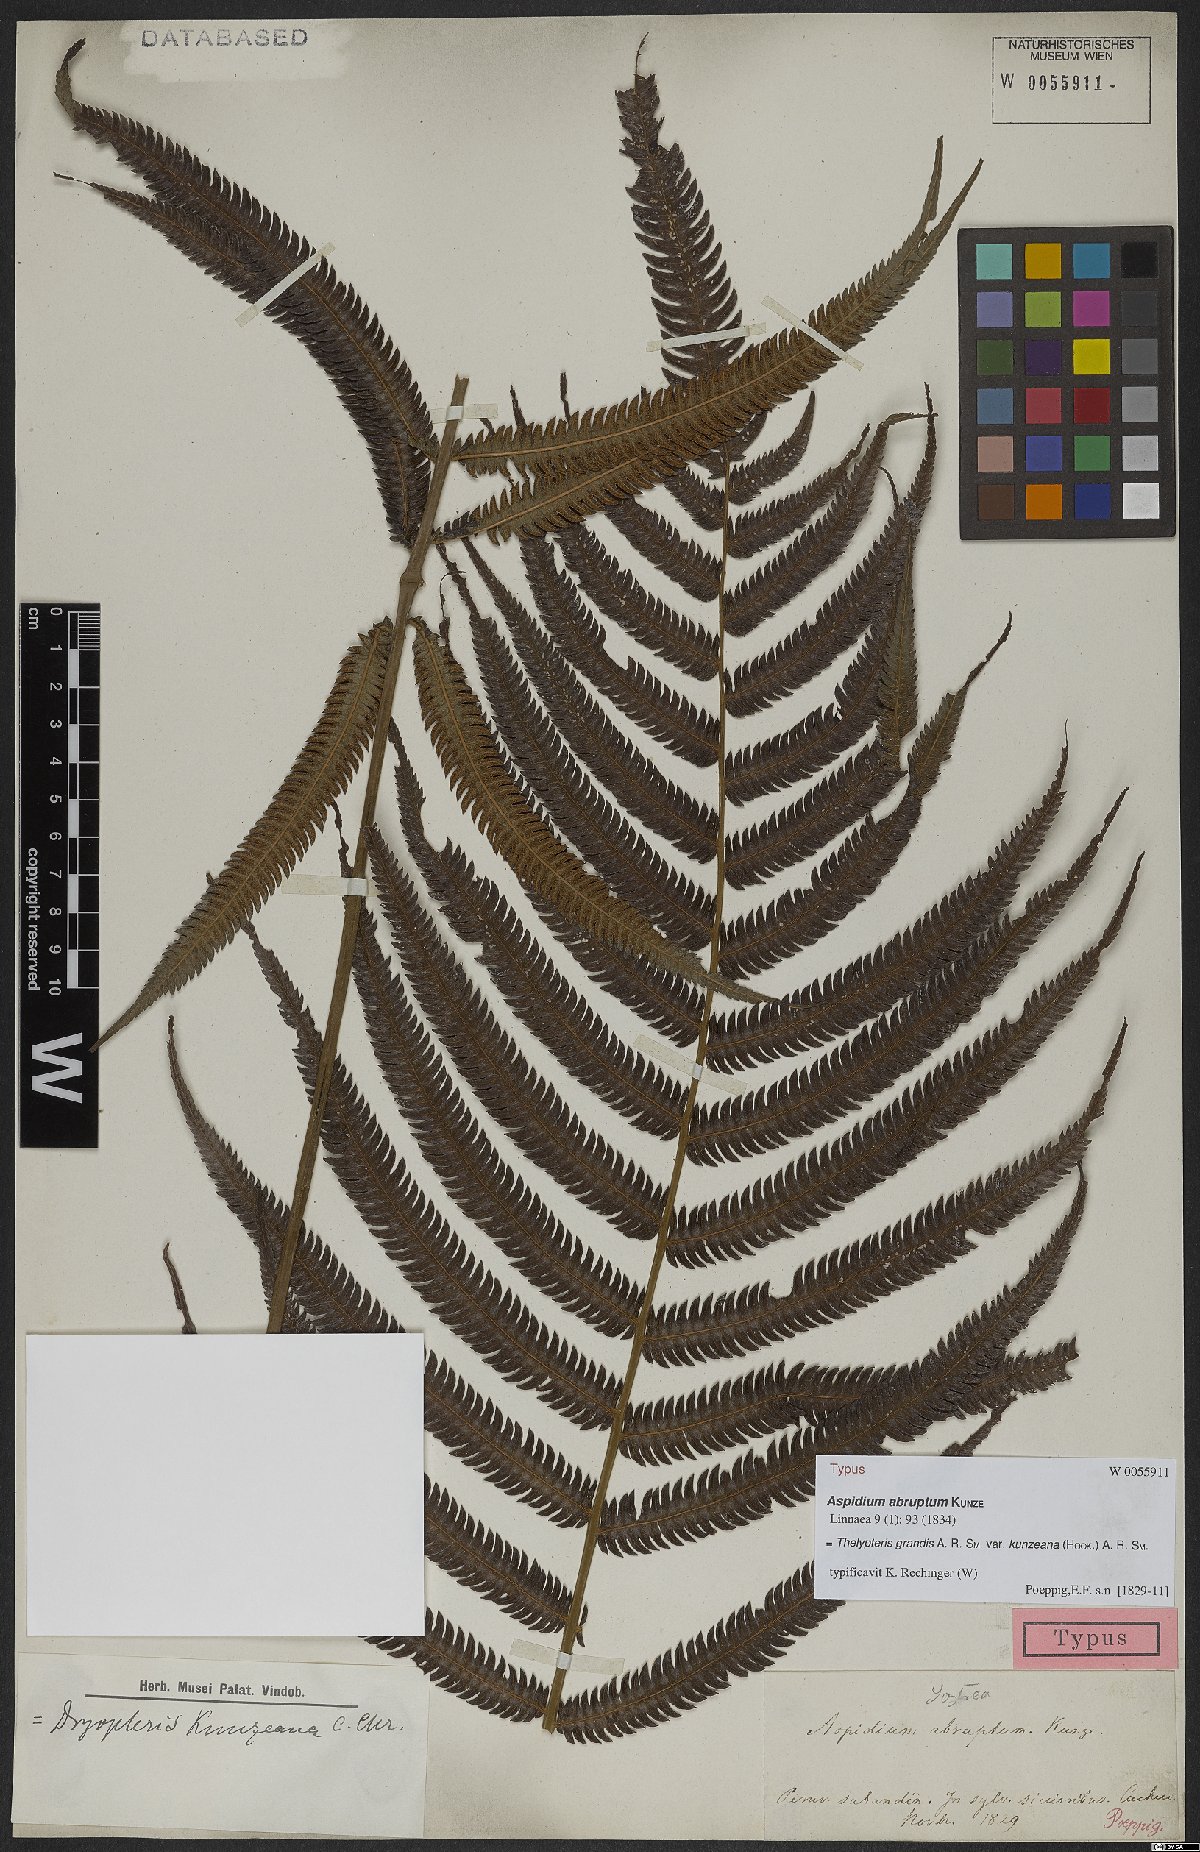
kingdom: Plantae
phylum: Tracheophyta
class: Polypodiopsida
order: Polypodiales
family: Thelypteridaceae
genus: Pelazoneuron
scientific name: Pelazoneuron abruptum
